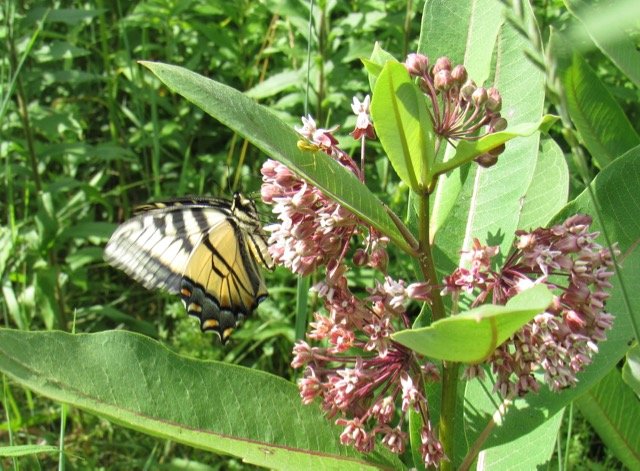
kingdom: Animalia
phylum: Arthropoda
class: Insecta
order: Lepidoptera
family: Papilionidae
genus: Pterourus
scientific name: Pterourus canadensis
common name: Canadian Tiger Swallowtail
